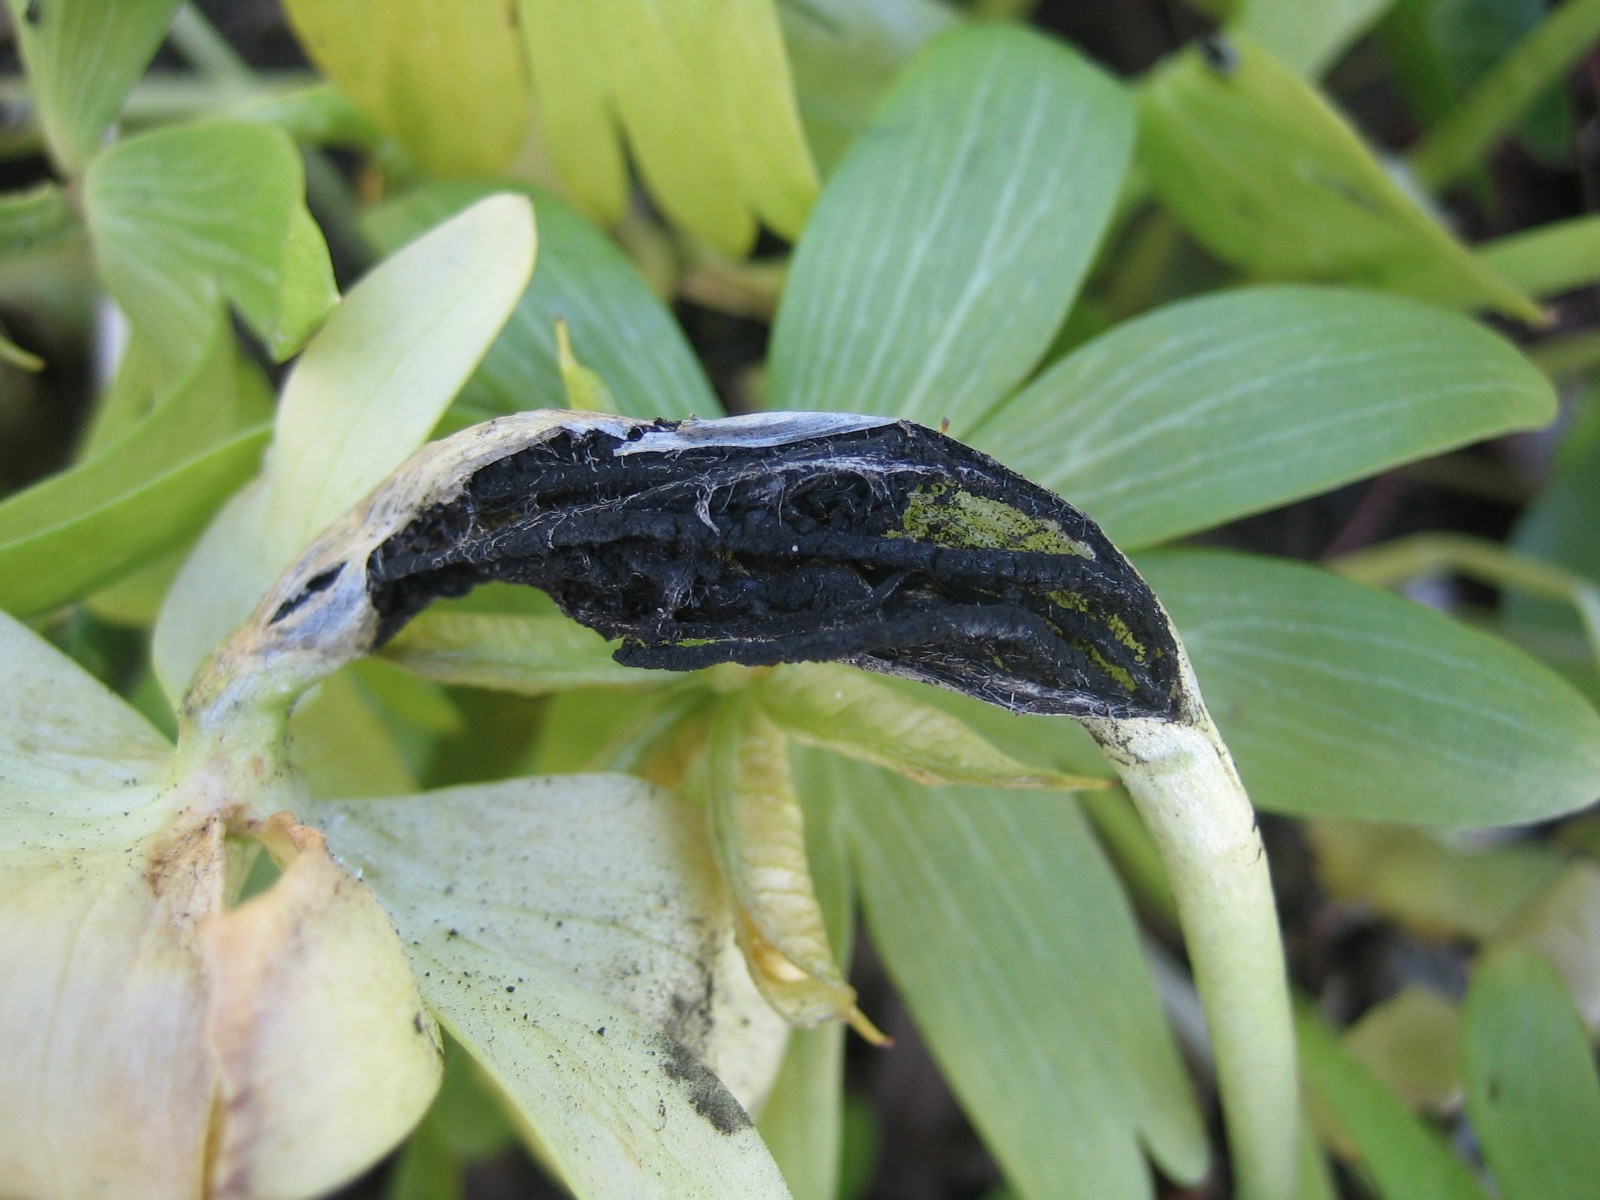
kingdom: Fungi
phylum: Basidiomycota
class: Ustilaginomycetes
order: Urocystidales
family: Urocystidaceae
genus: Urocystis
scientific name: Urocystis eranthidis
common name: erantis-brand
